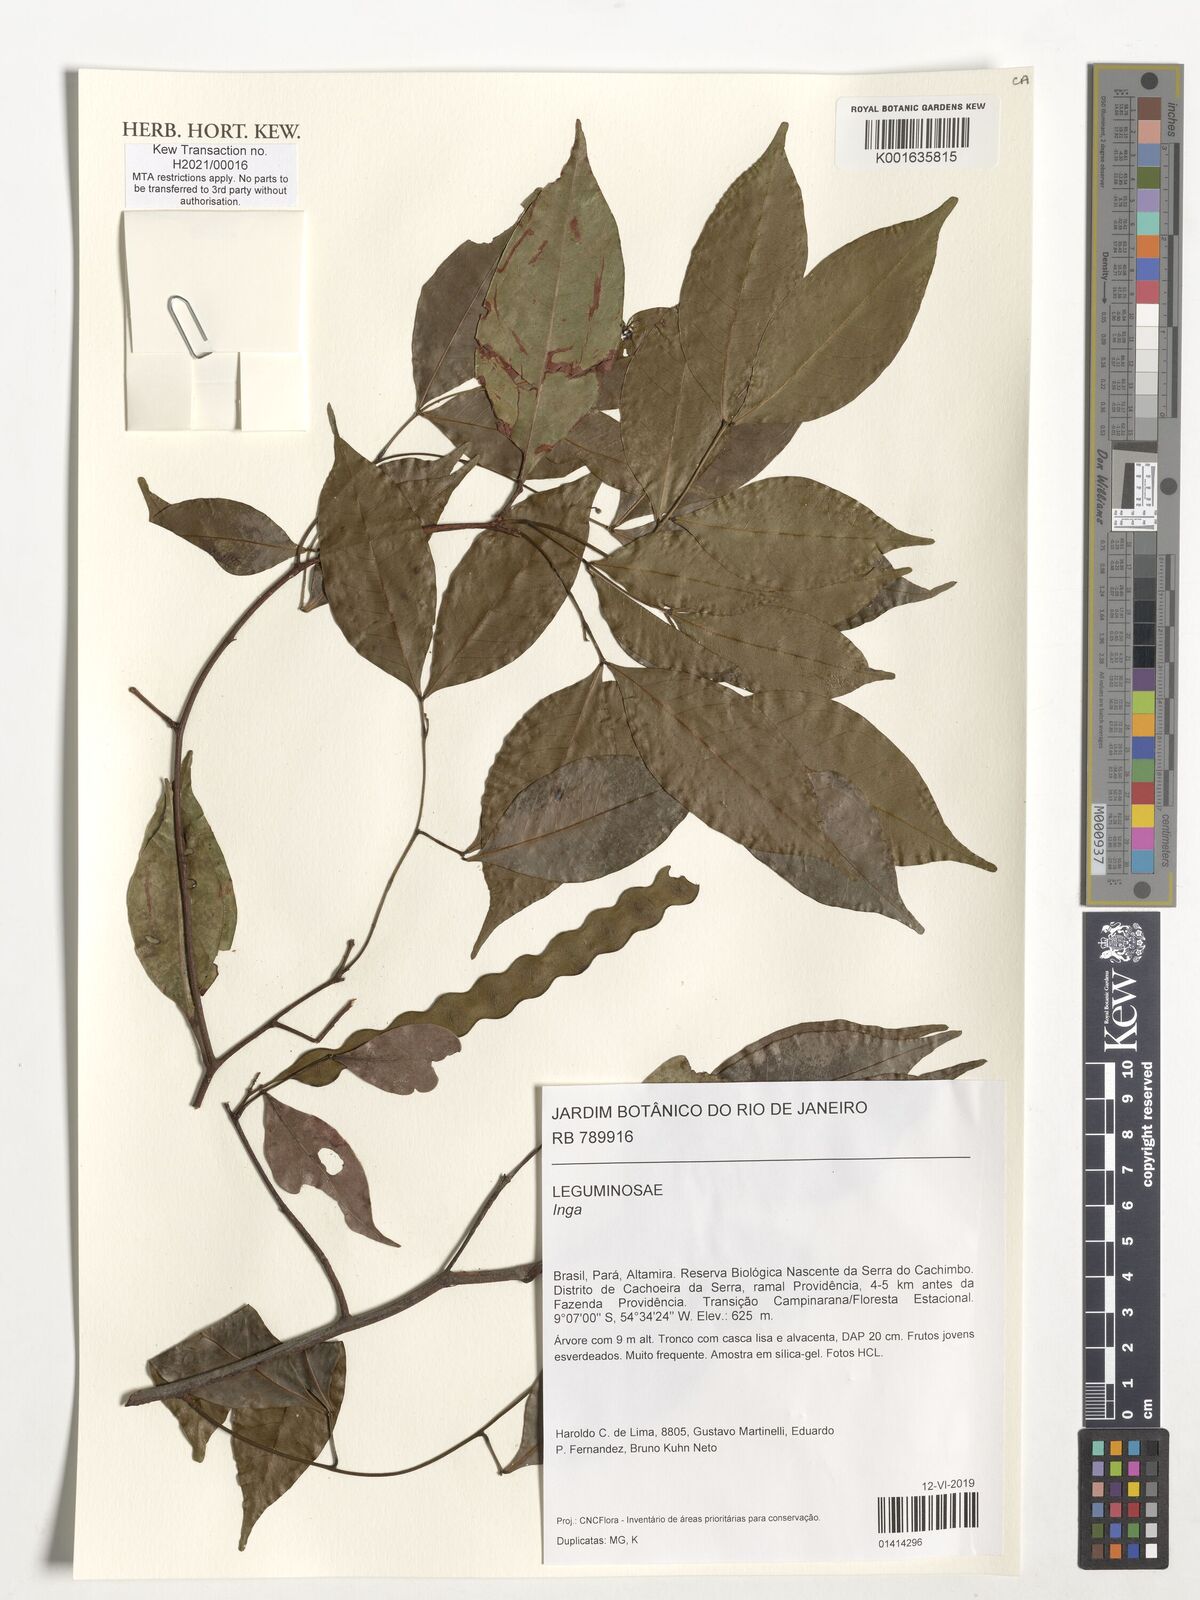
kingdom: Plantae
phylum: Tracheophyta
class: Magnoliopsida
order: Fabales
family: Fabaceae
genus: Inga
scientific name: Inga
